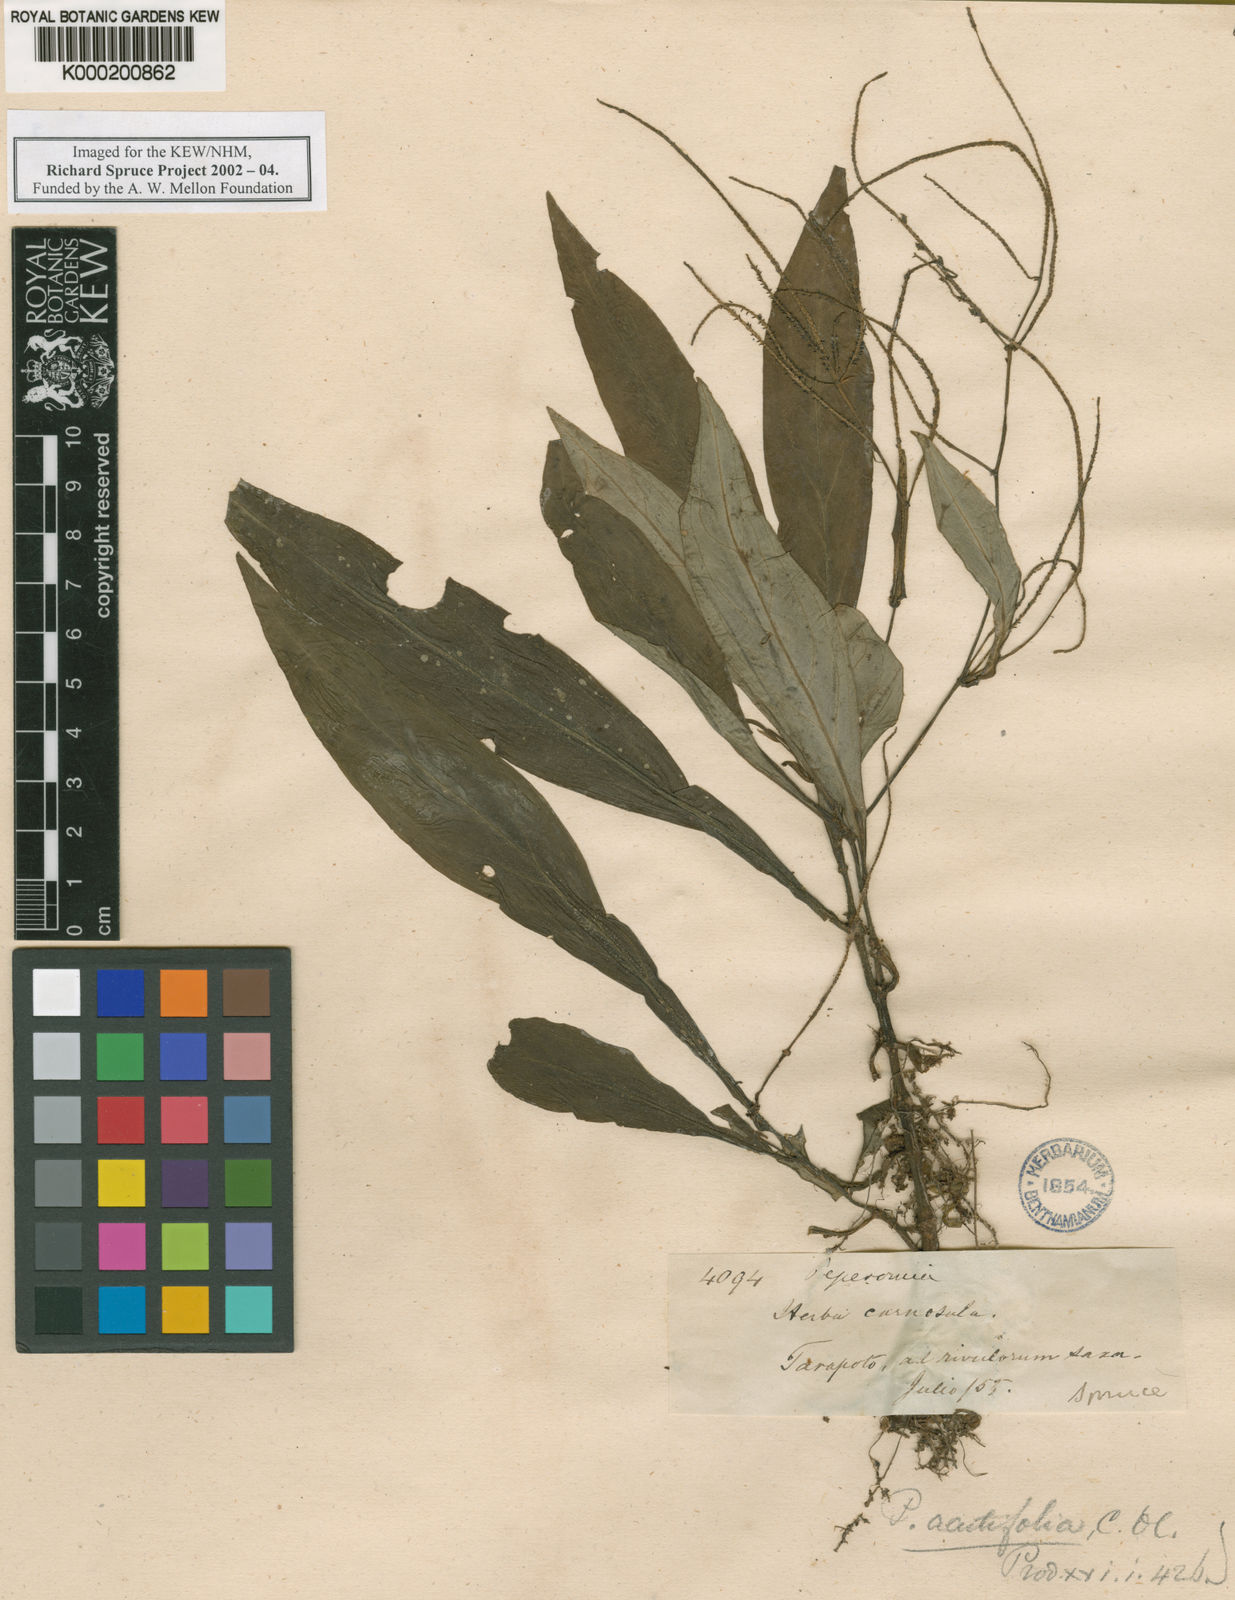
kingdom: Plantae
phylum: Tracheophyta
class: Magnoliopsida
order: Piperales
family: Piperaceae
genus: Peperomia
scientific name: Peperomia lancifolia
